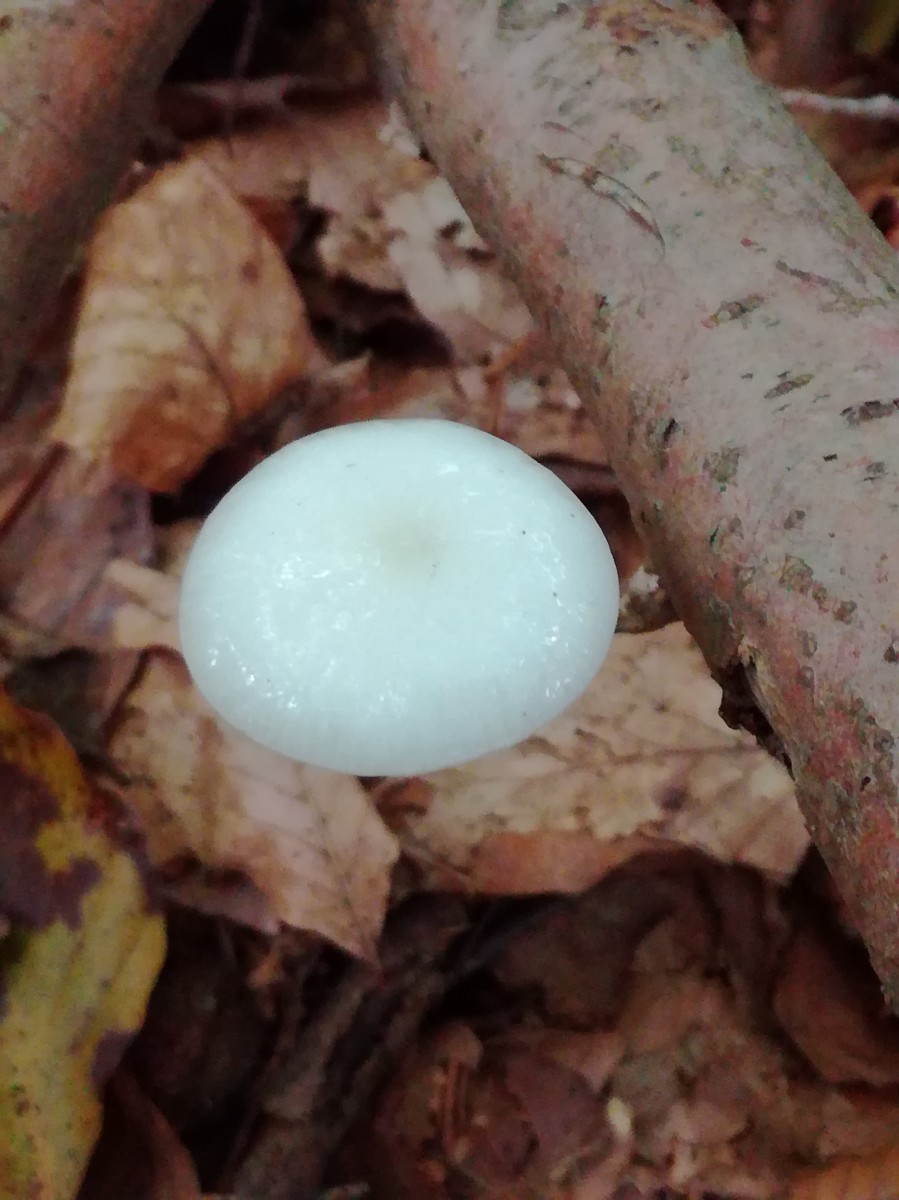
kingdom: Fungi
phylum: Basidiomycota
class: Agaricomycetes
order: Agaricales
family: Physalacriaceae
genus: Mucidula
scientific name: Mucidula mucida
